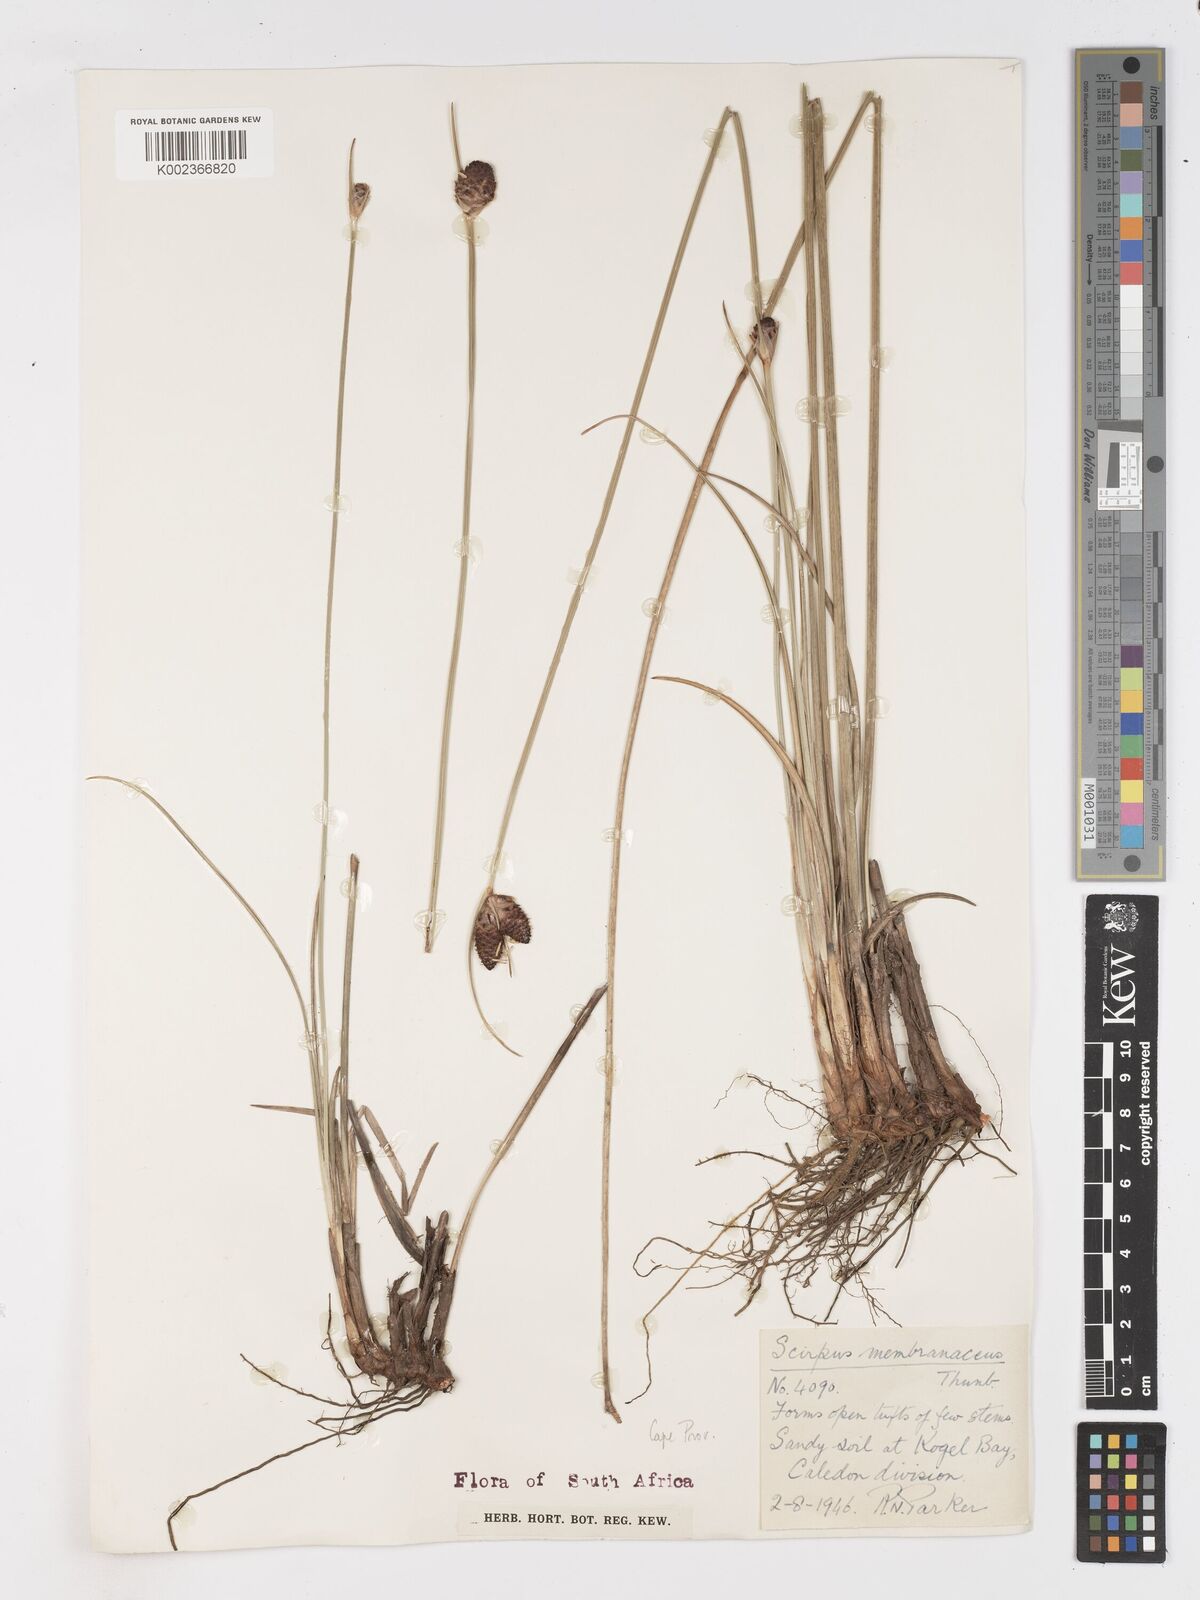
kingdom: Plantae
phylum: Tracheophyta
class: Liliopsida
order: Poales
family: Cyperaceae
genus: Hellmuthia
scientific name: Hellmuthia membranacea
